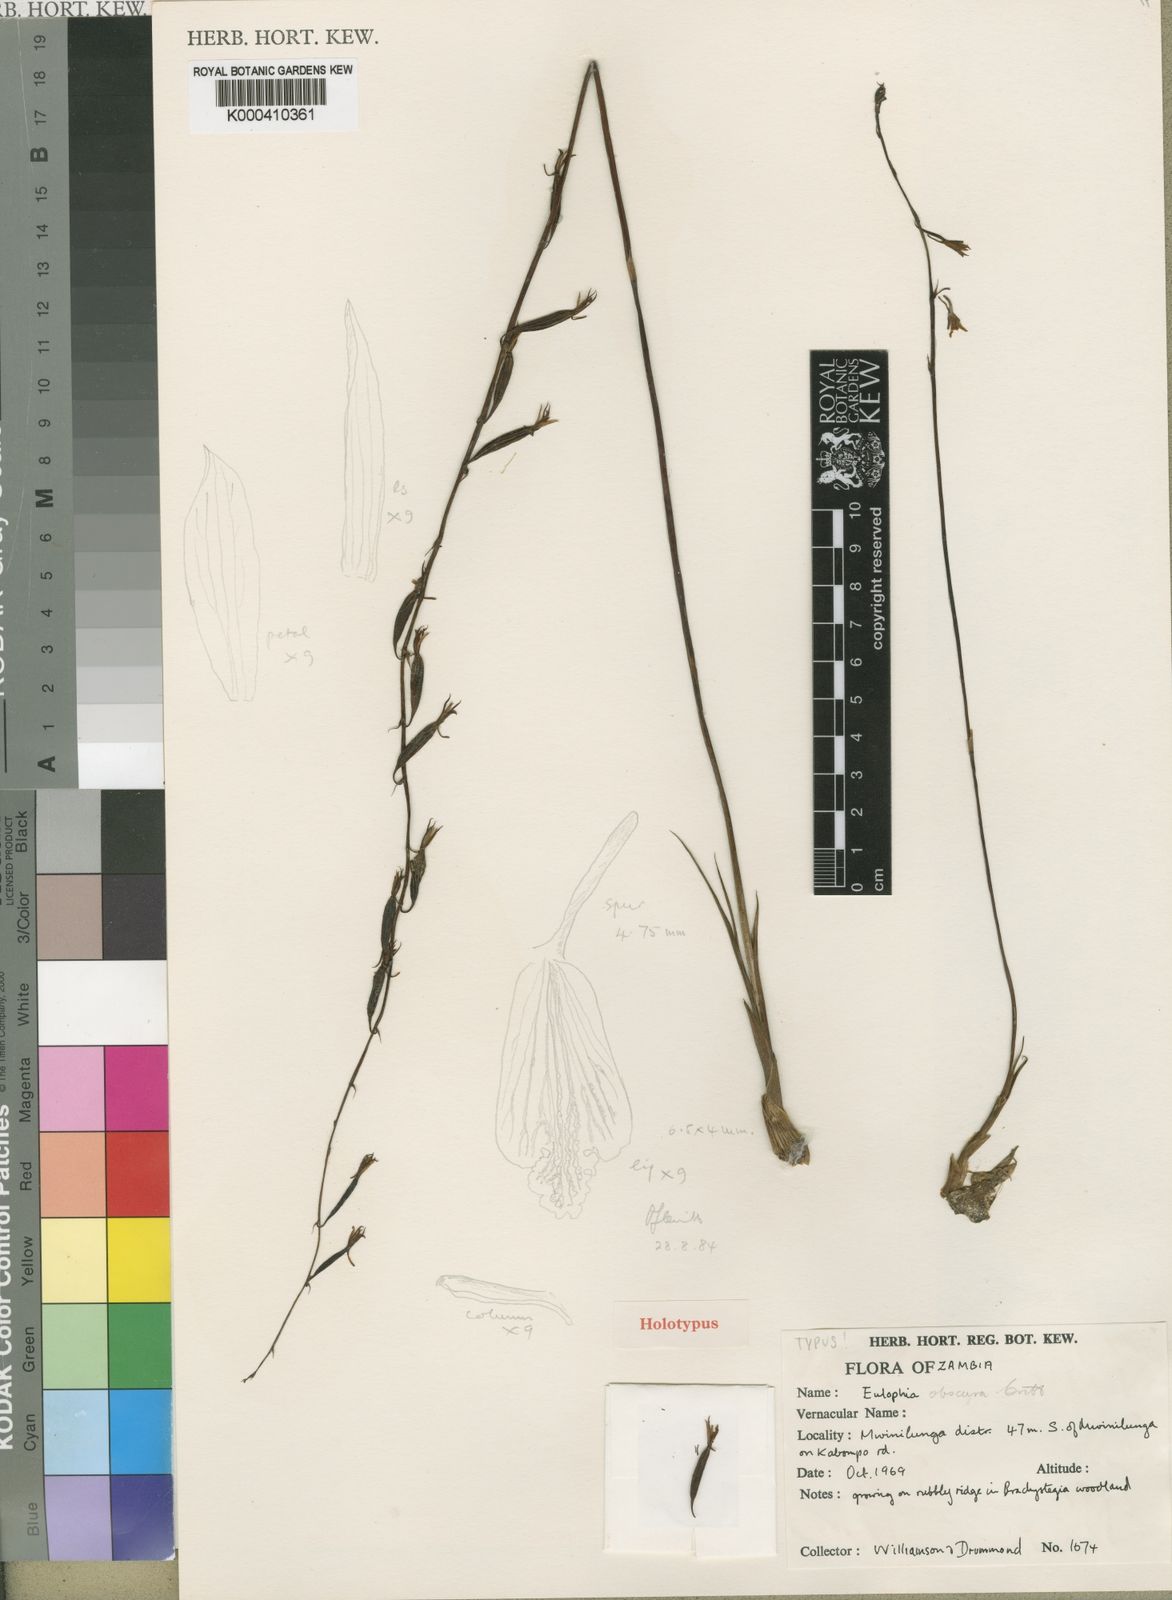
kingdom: Plantae
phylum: Tracheophyta
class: Liliopsida
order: Asparagales
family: Orchidaceae
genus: Eulophia
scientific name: Eulophia obscura
